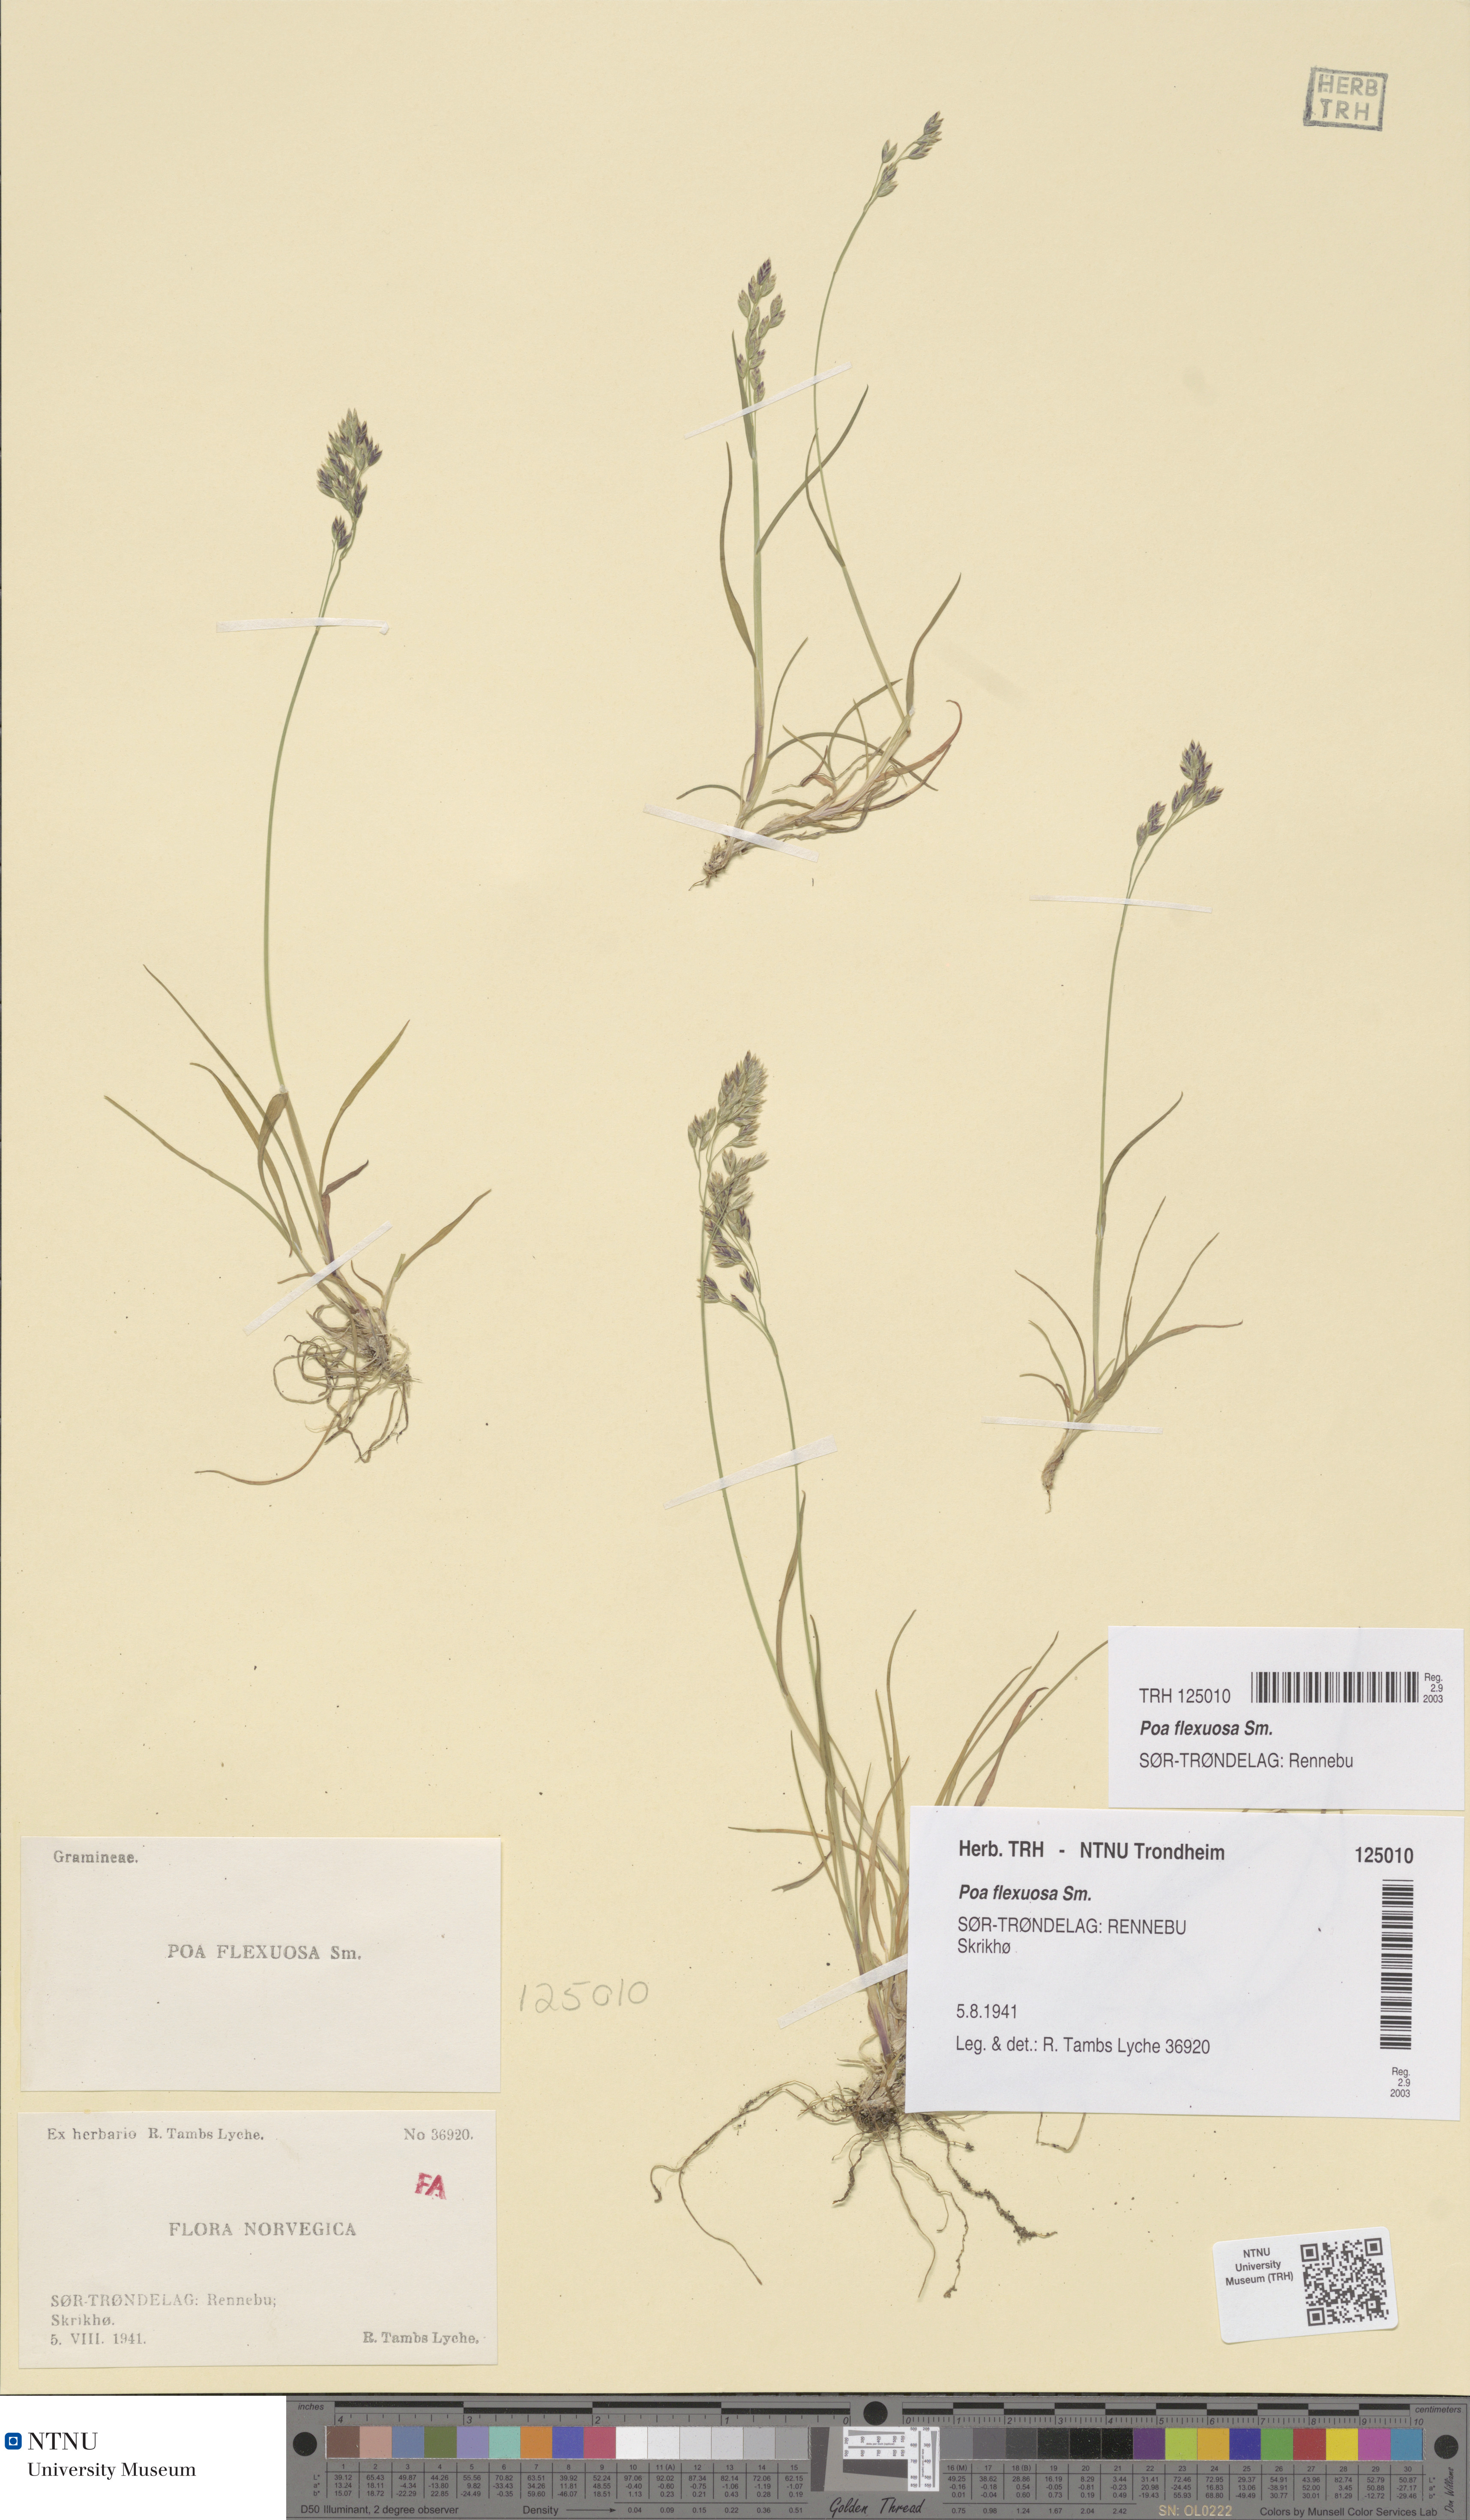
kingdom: Plantae
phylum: Tracheophyta
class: Liliopsida
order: Poales
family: Poaceae
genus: Poa
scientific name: Poa flexuosa
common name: Wavy meadow-grass
